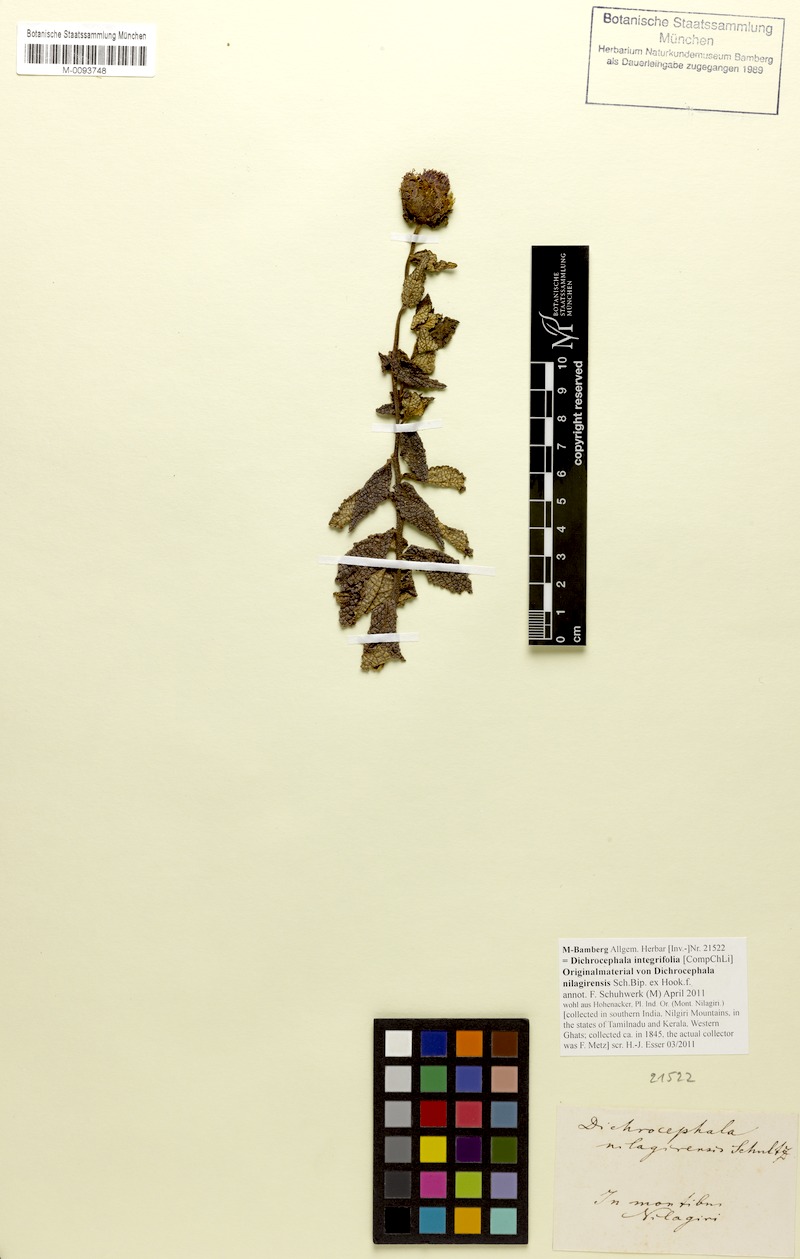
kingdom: Plantae
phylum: Tracheophyta
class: Magnoliopsida
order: Asterales
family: Asteraceae
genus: Dichrocephala
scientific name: Dichrocephala integrifolia
